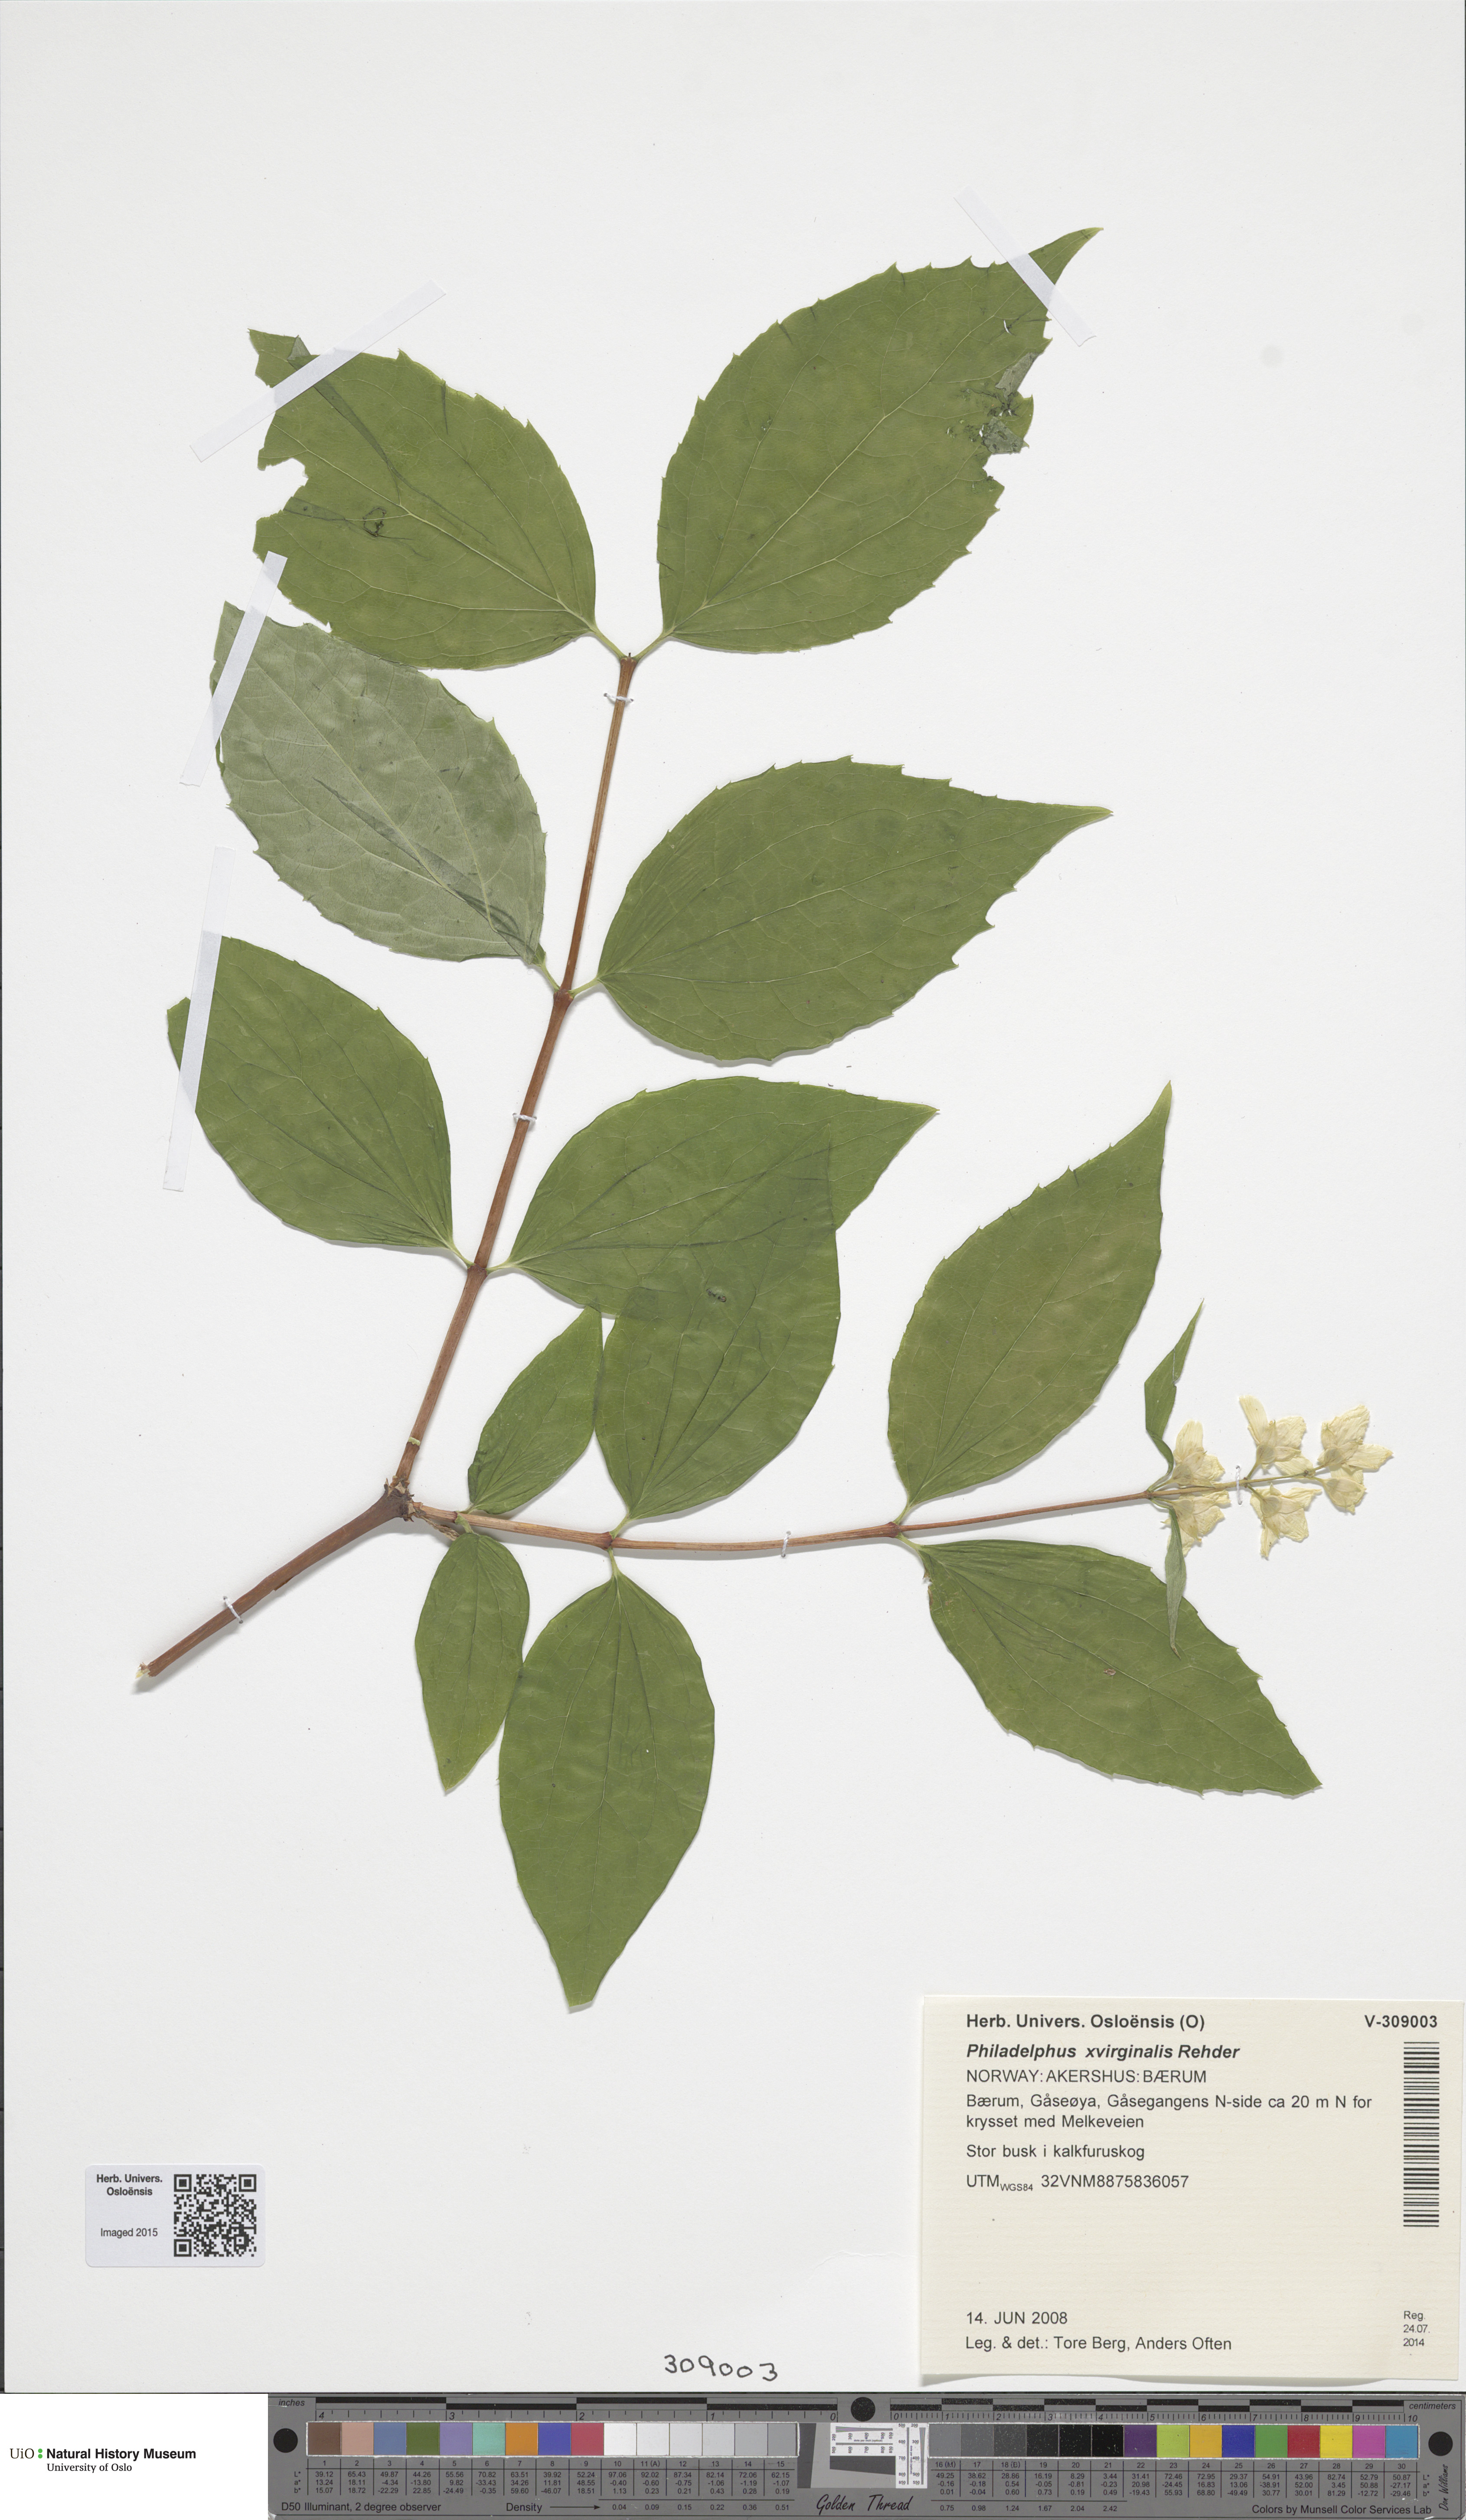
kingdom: Plantae
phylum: Tracheophyta
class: Magnoliopsida
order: Cornales
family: Hydrangeaceae
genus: Philadelphus
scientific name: Philadelphus coronarius
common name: Mock orange
